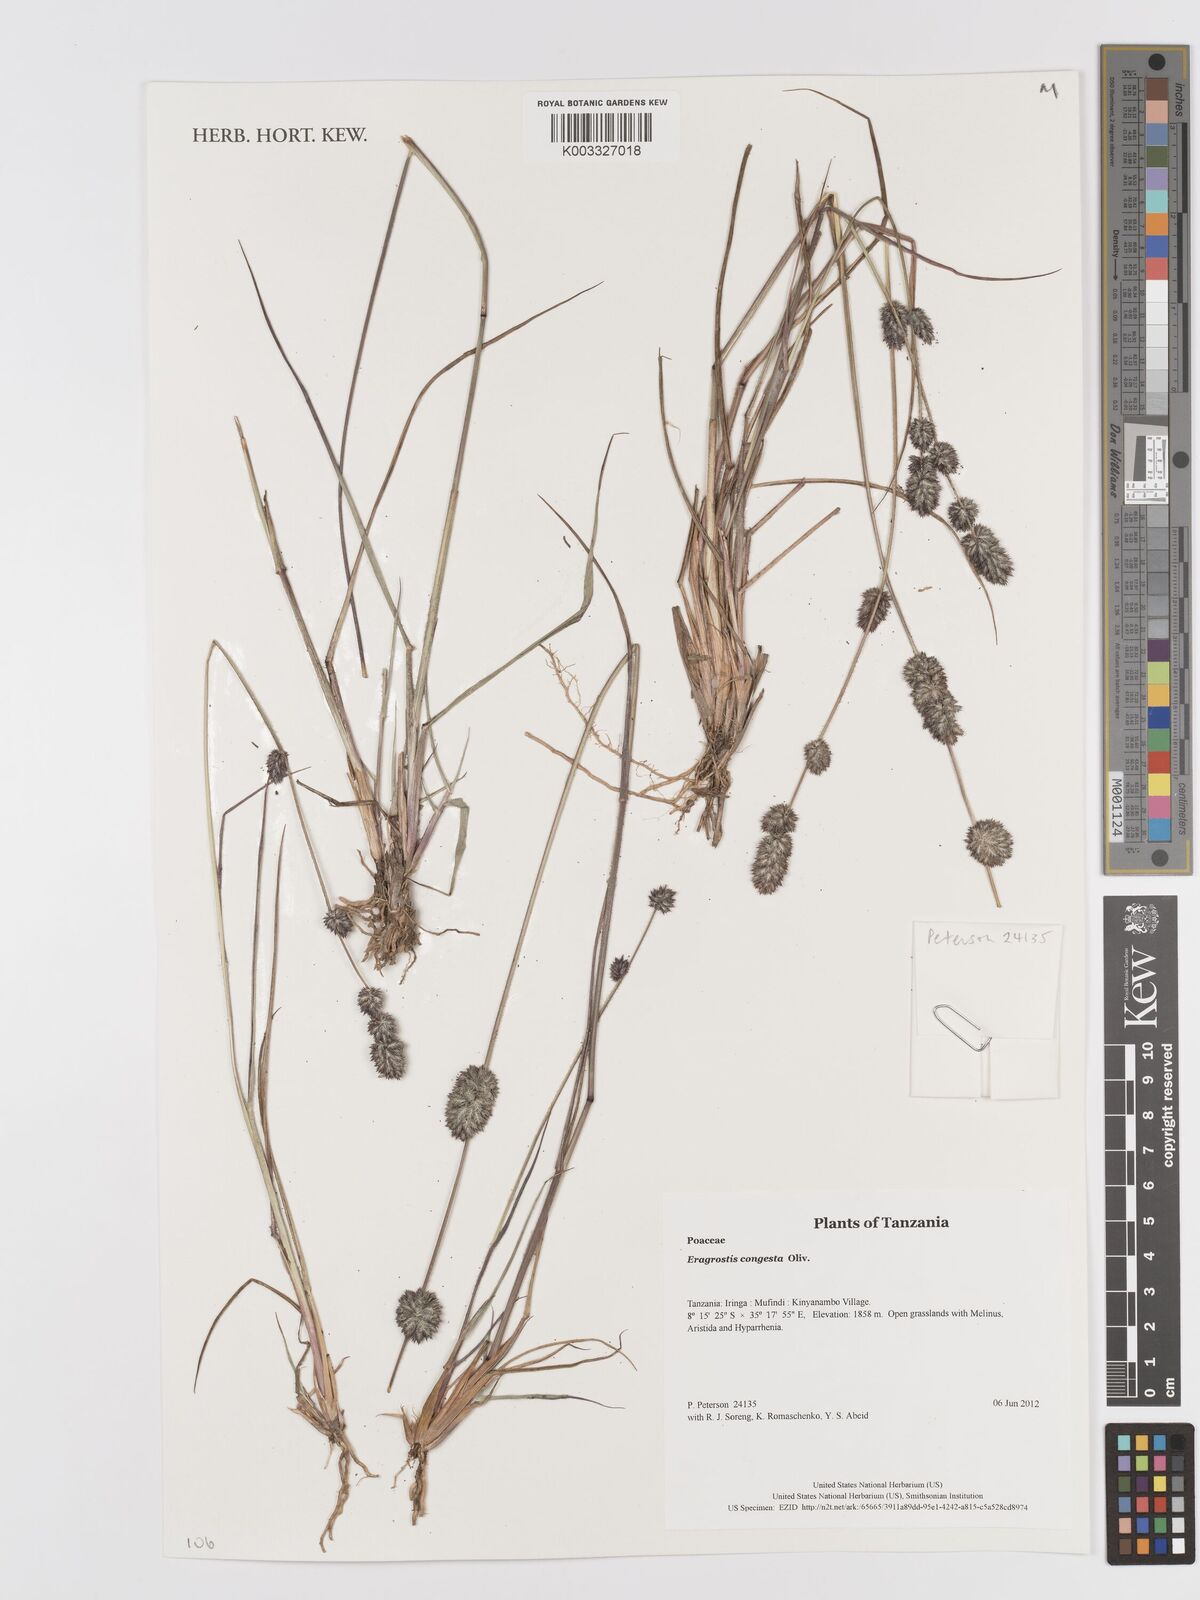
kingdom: Plantae
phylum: Tracheophyta
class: Liliopsida
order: Poales
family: Poaceae
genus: Eragrostis
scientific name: Eragrostis congesta
